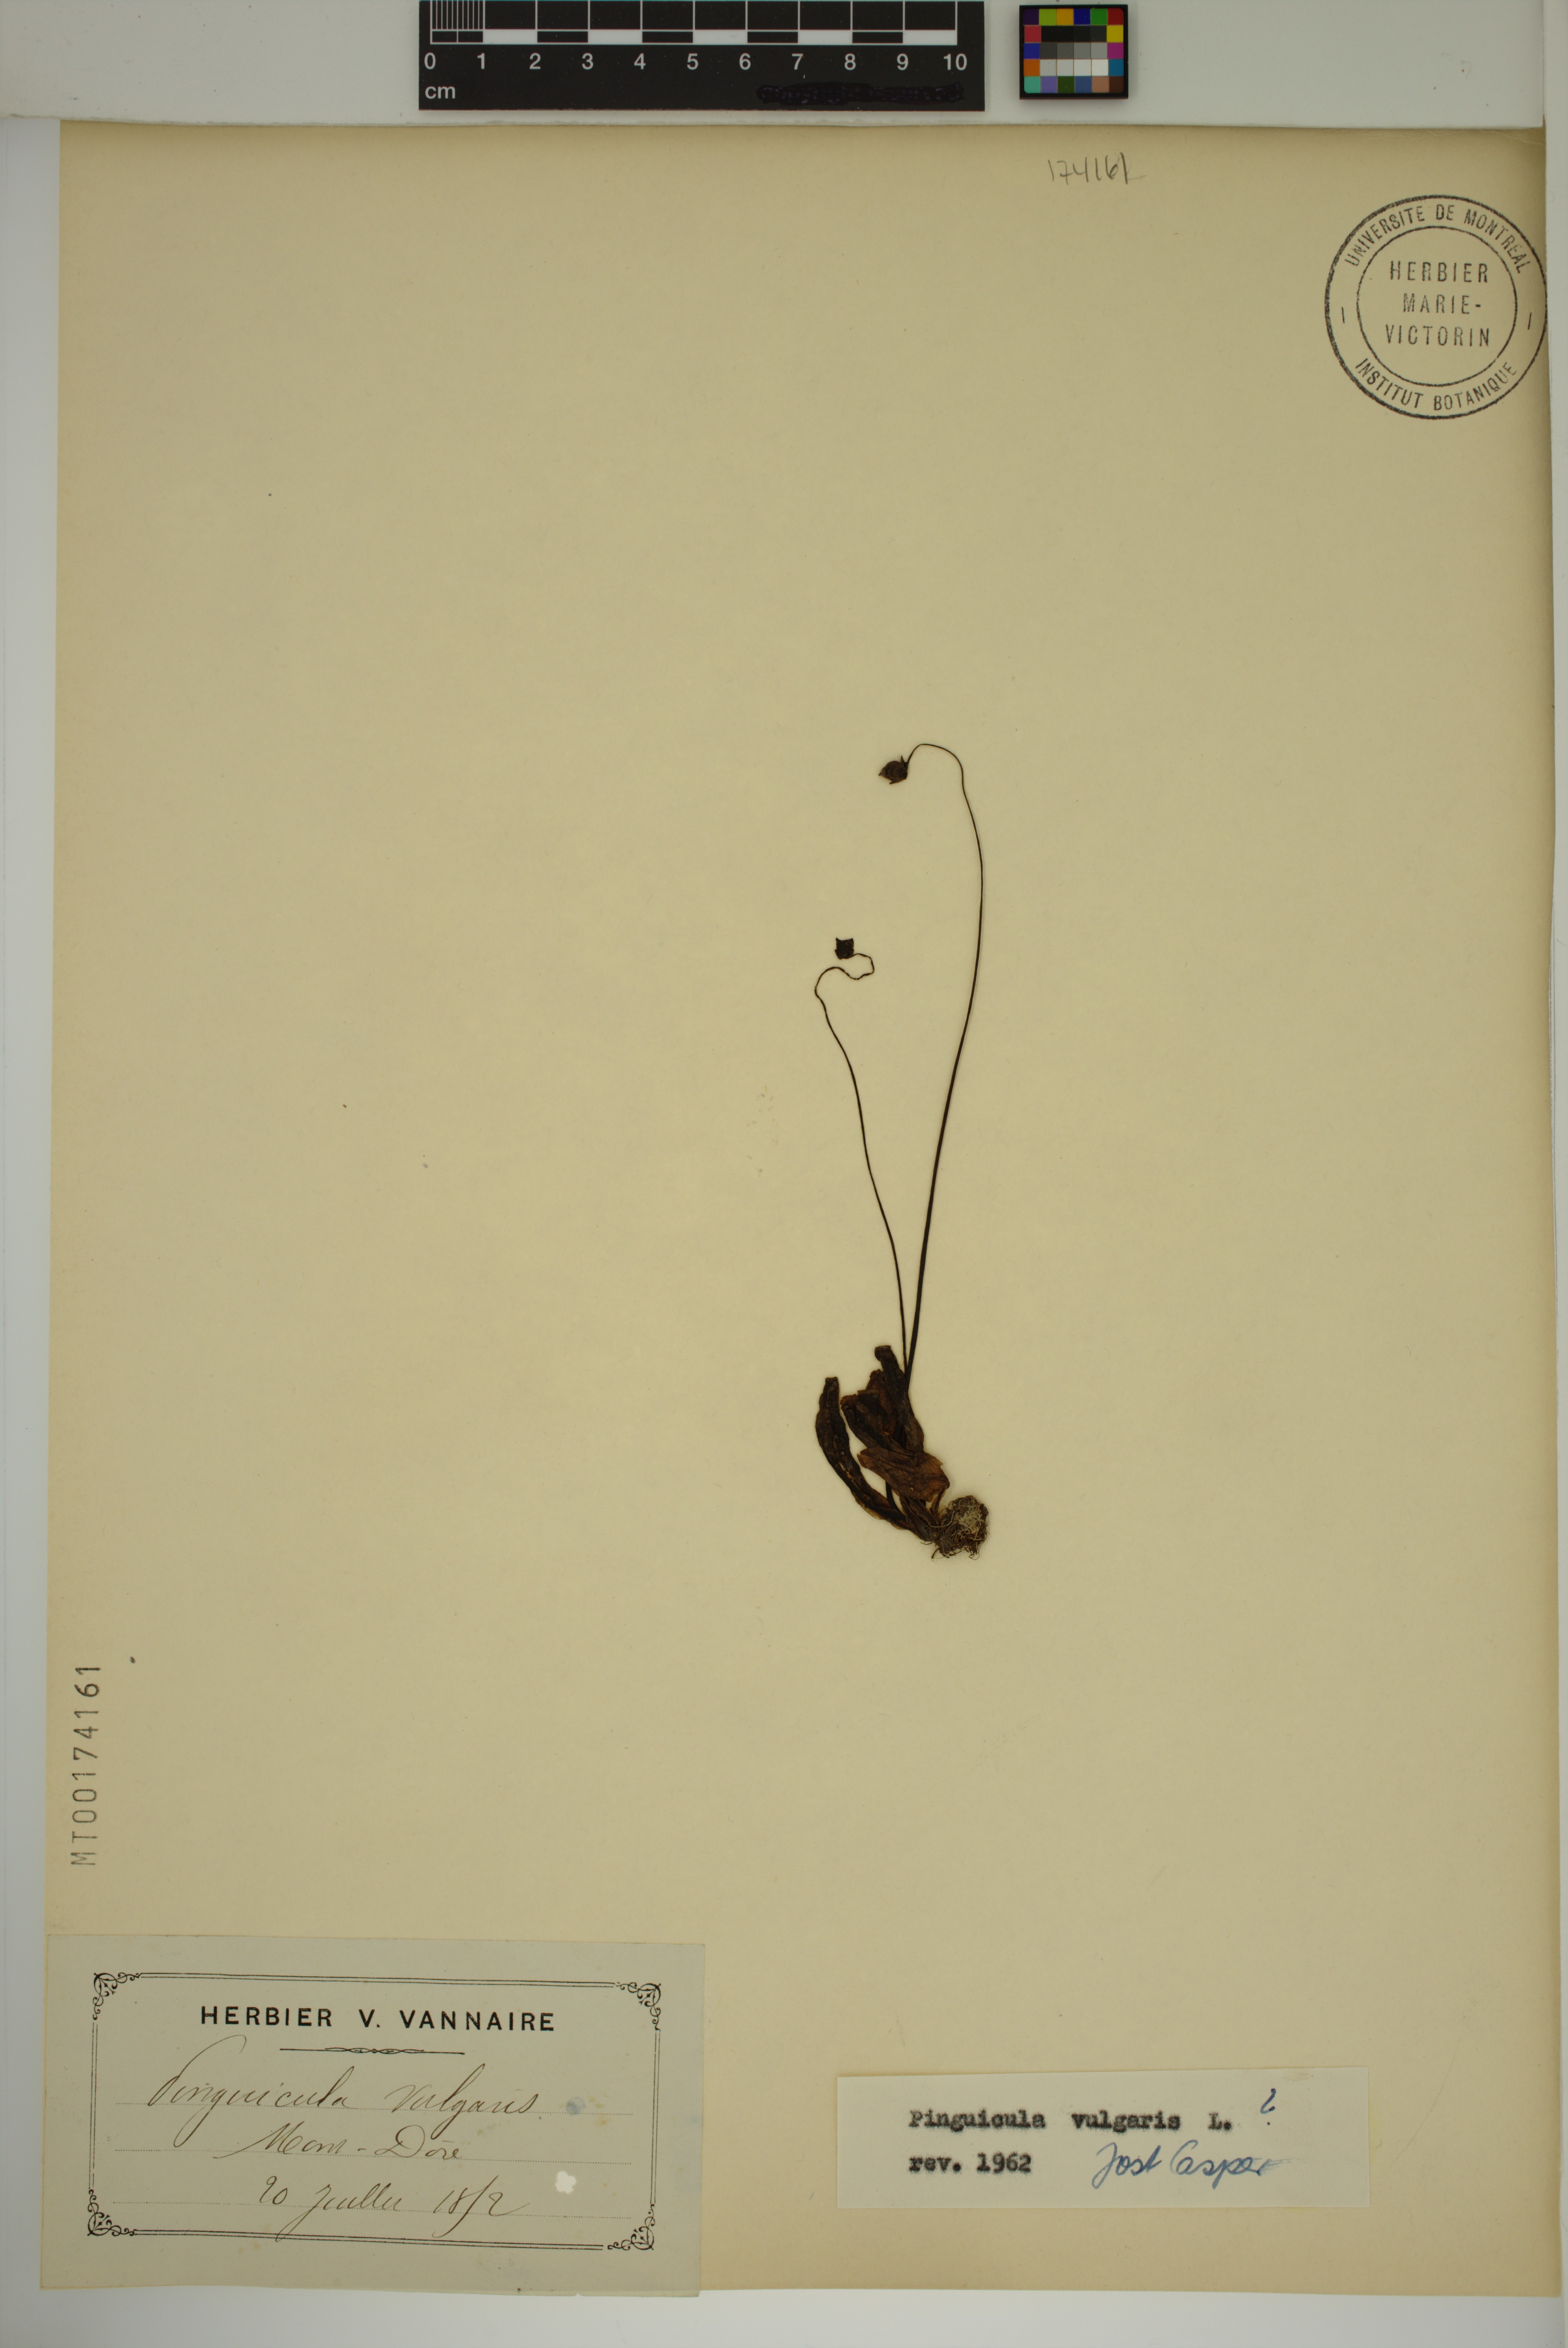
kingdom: Plantae
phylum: Tracheophyta
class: Magnoliopsida
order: Lamiales
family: Lentibulariaceae
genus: Pinguicula
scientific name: Pinguicula vulgaris
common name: Common butterwort
